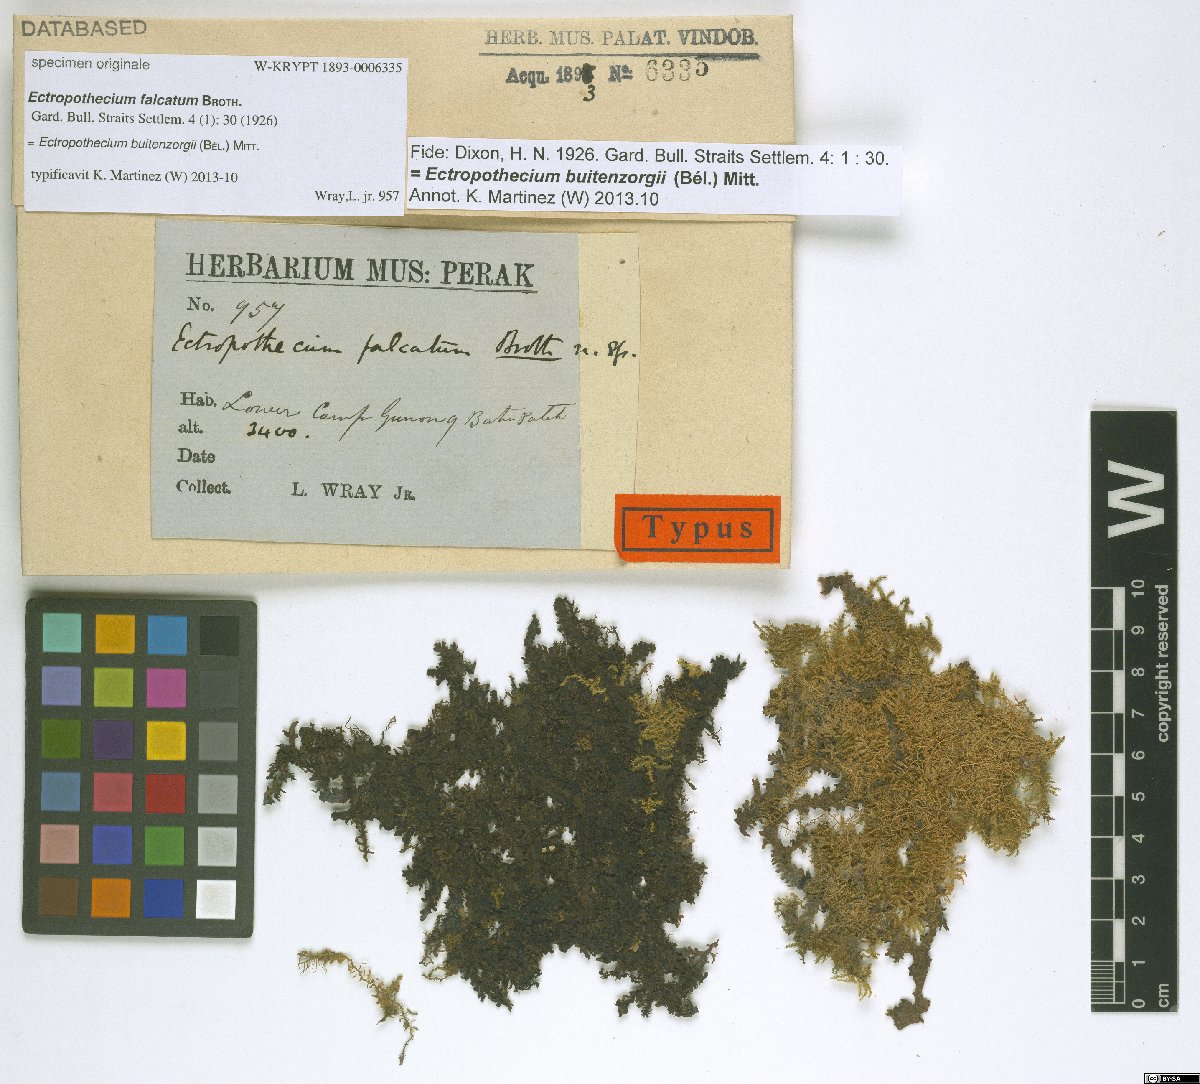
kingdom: Plantae
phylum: Bryophyta
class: Bryopsida
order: Hypnales
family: Hypnaceae
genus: Ectropothecium
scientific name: Ectropothecium falcatulum
